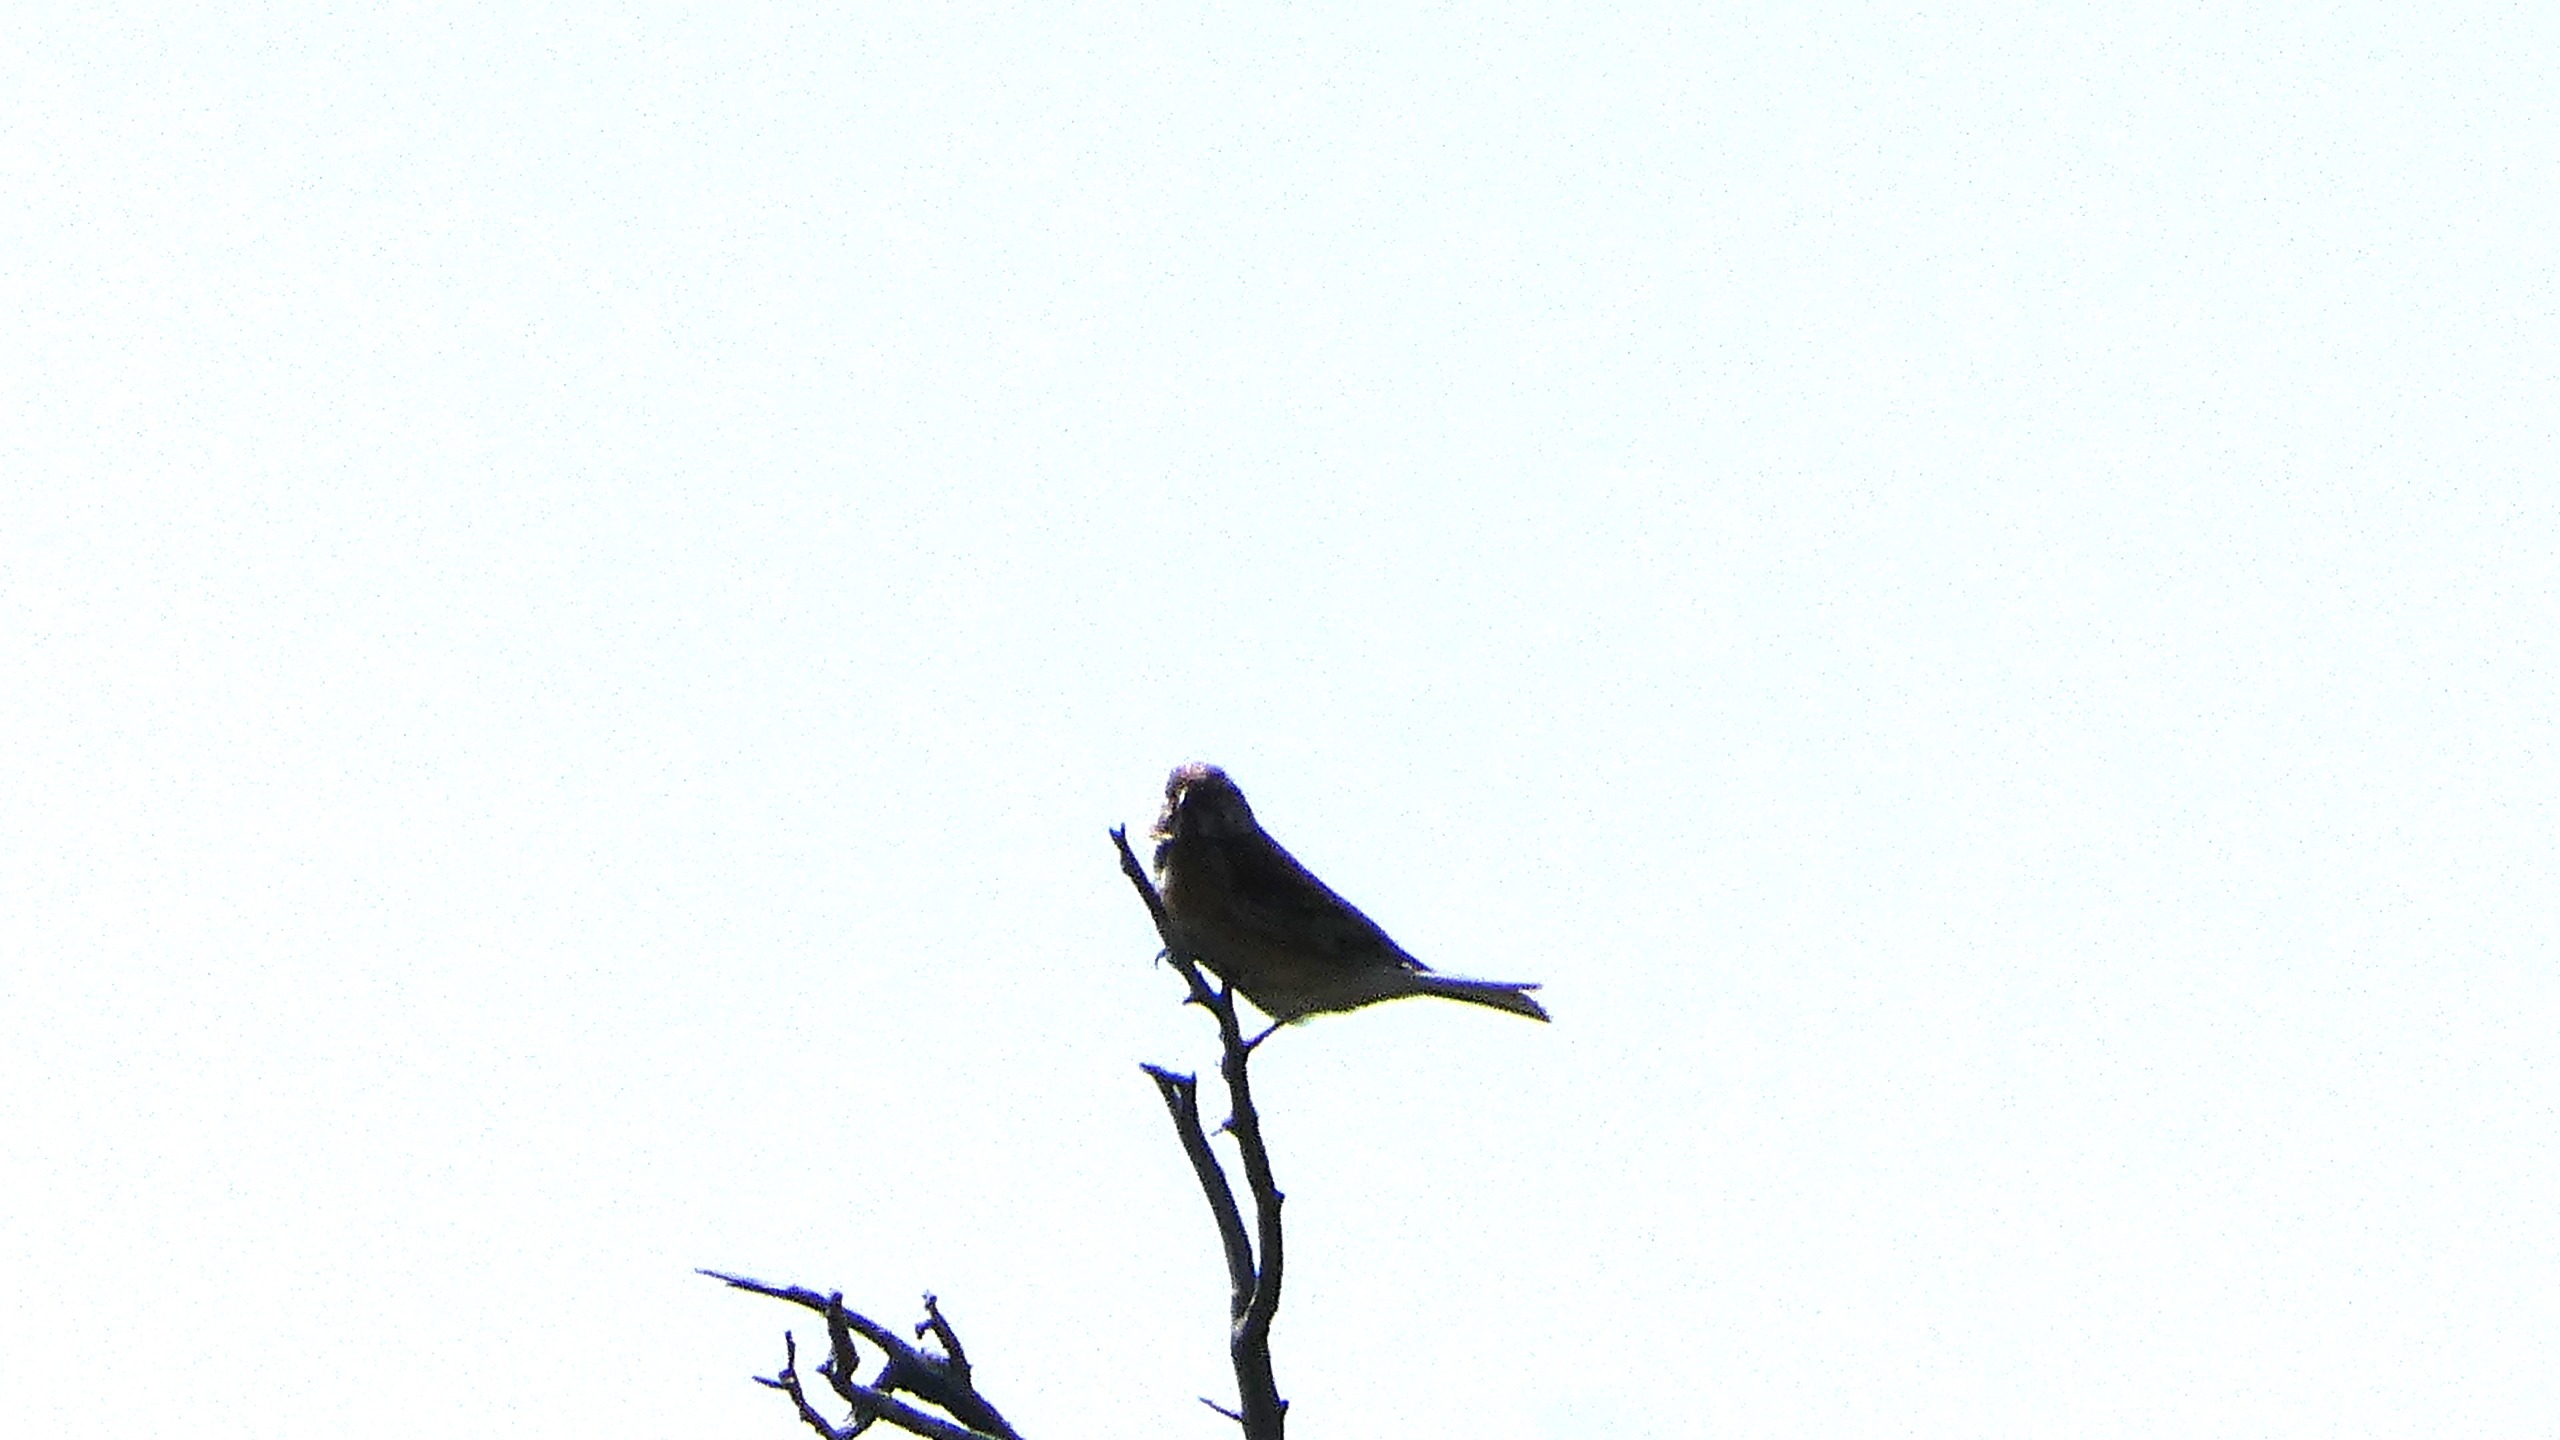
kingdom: Animalia
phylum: Chordata
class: Aves
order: Passeriformes
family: Fringillidae
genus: Linaria
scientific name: Linaria cannabina
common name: Tornirisk
